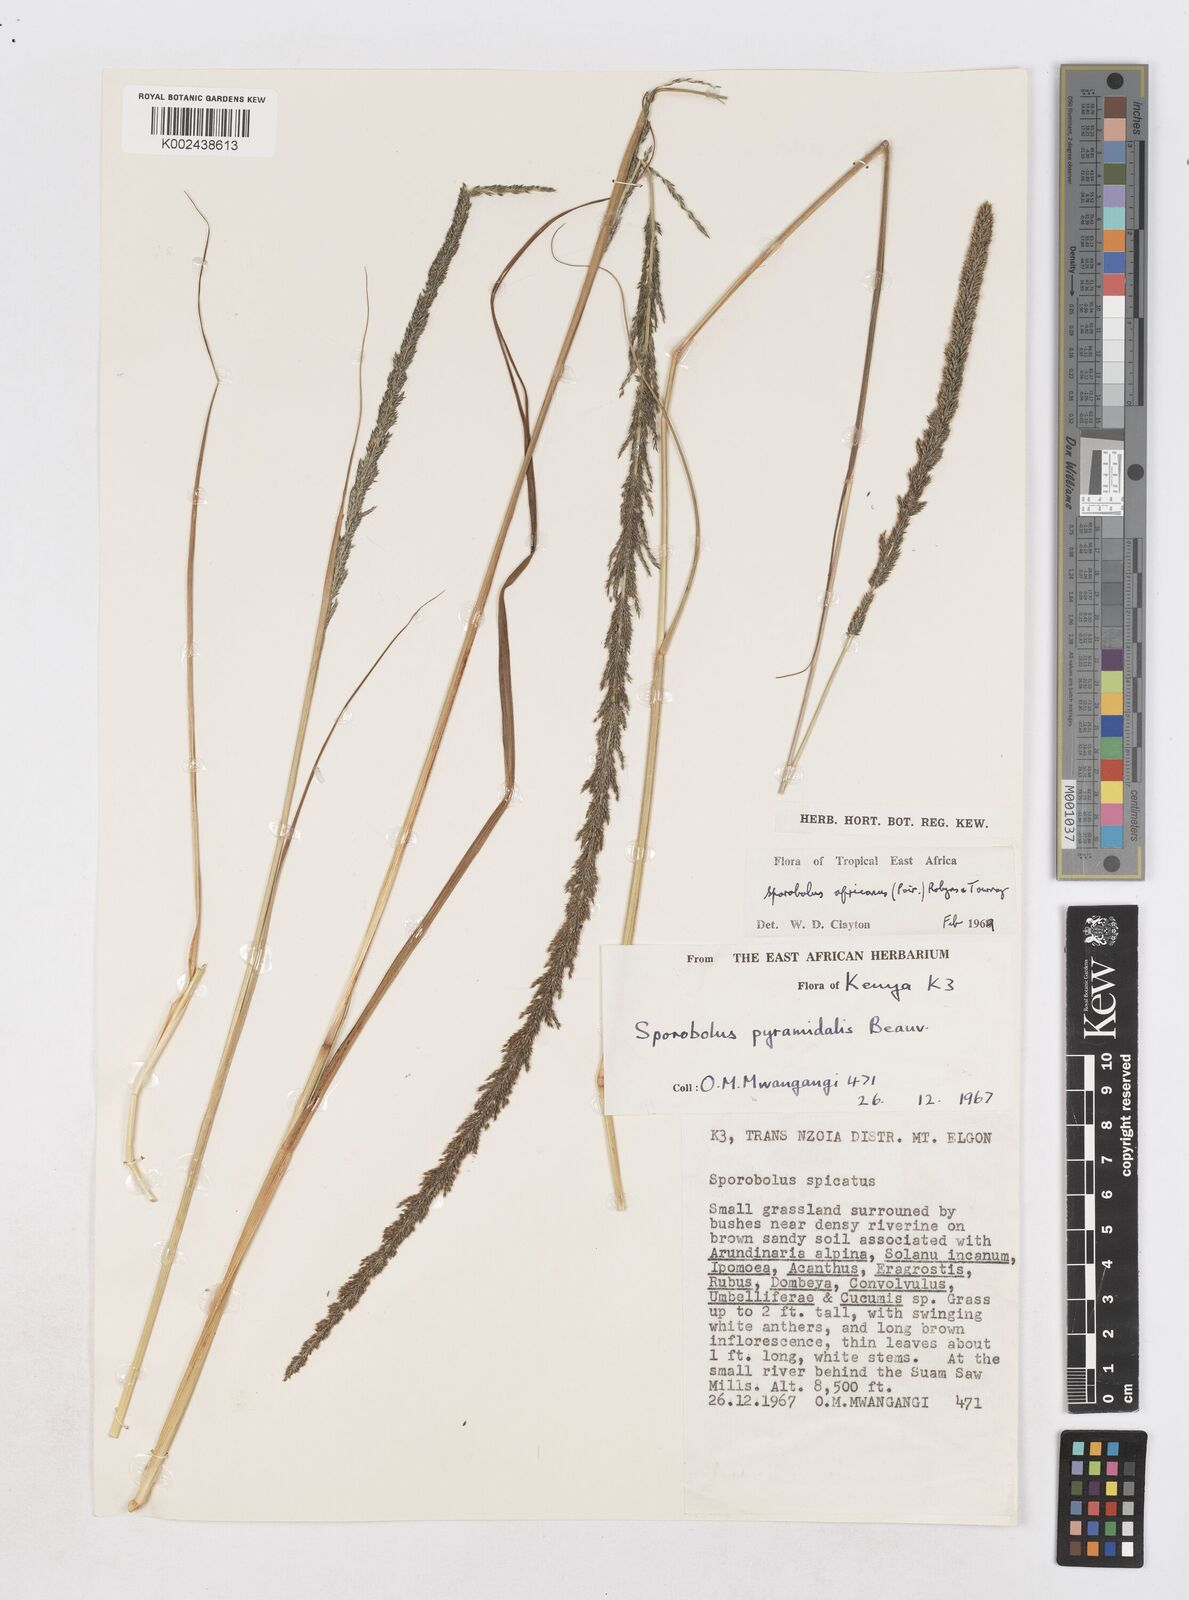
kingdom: Plantae
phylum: Tracheophyta
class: Liliopsida
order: Poales
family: Poaceae
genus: Sporobolus
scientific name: Sporobolus africanus
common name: African dropseed
